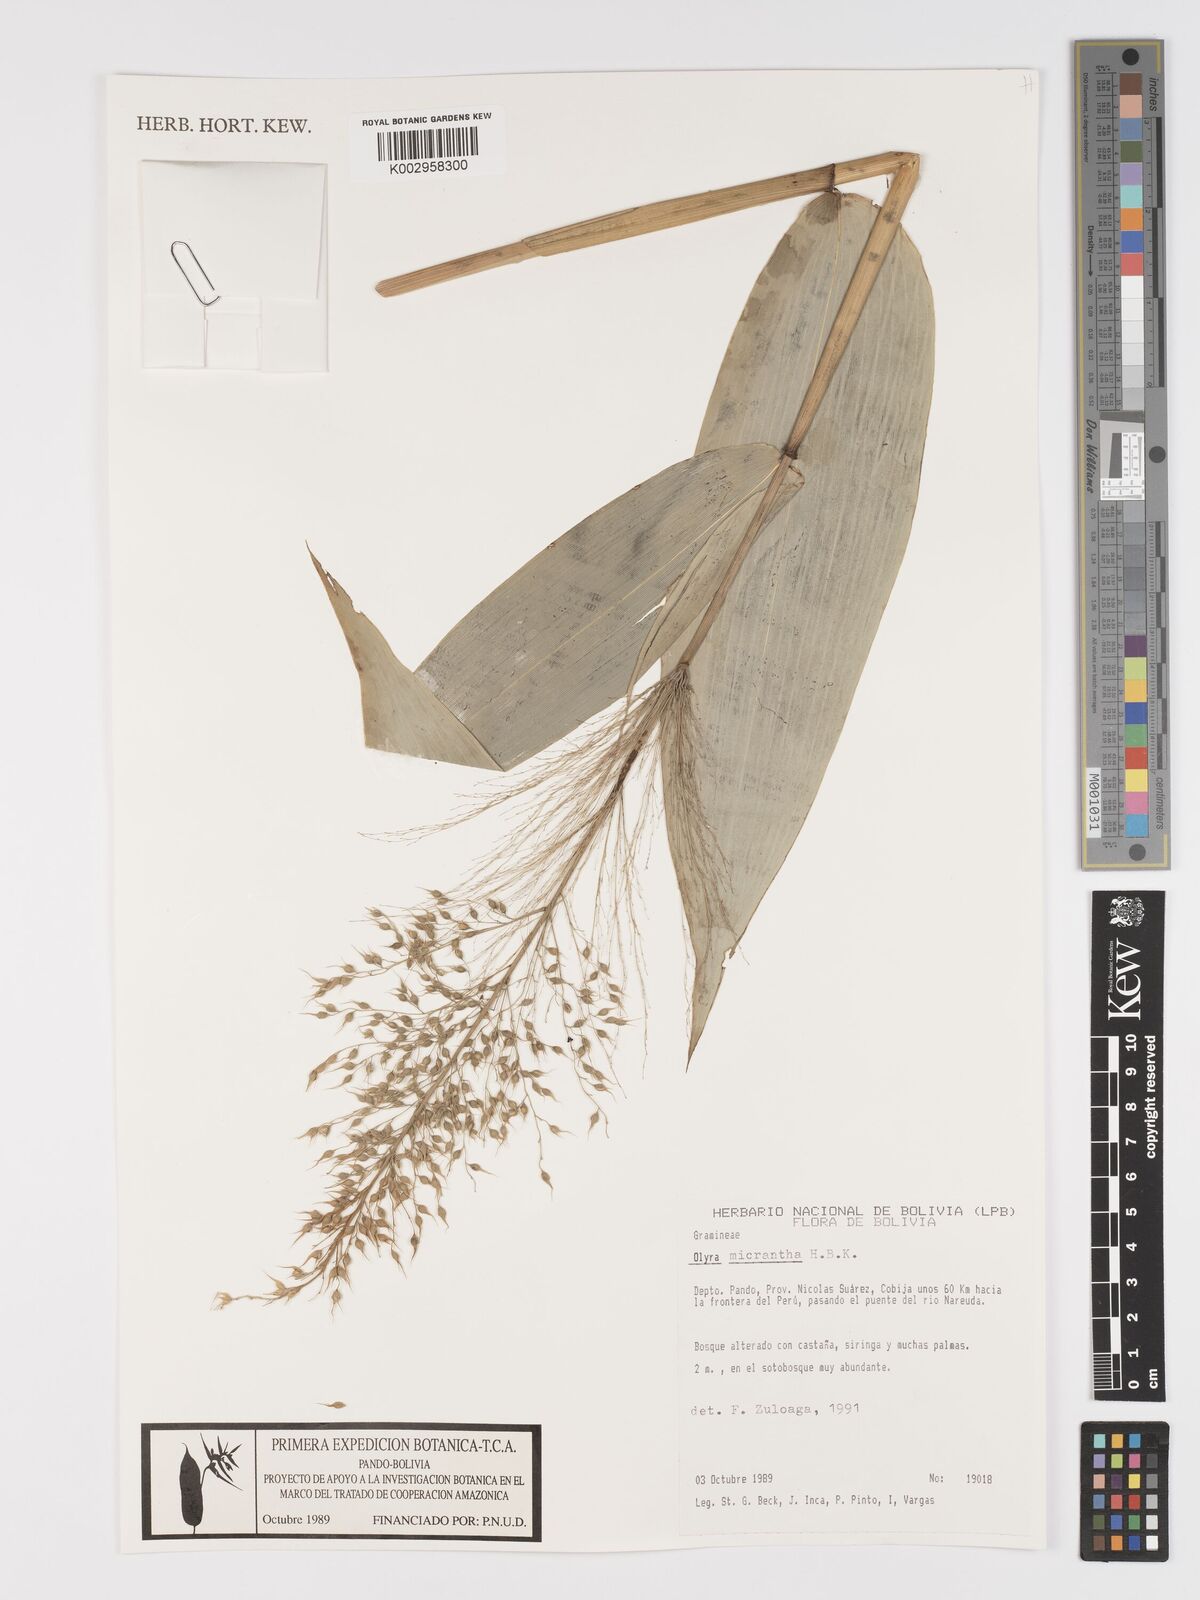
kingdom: Plantae
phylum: Tracheophyta
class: Liliopsida
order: Poales
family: Poaceae
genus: Taquara
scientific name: Taquara micrantha
